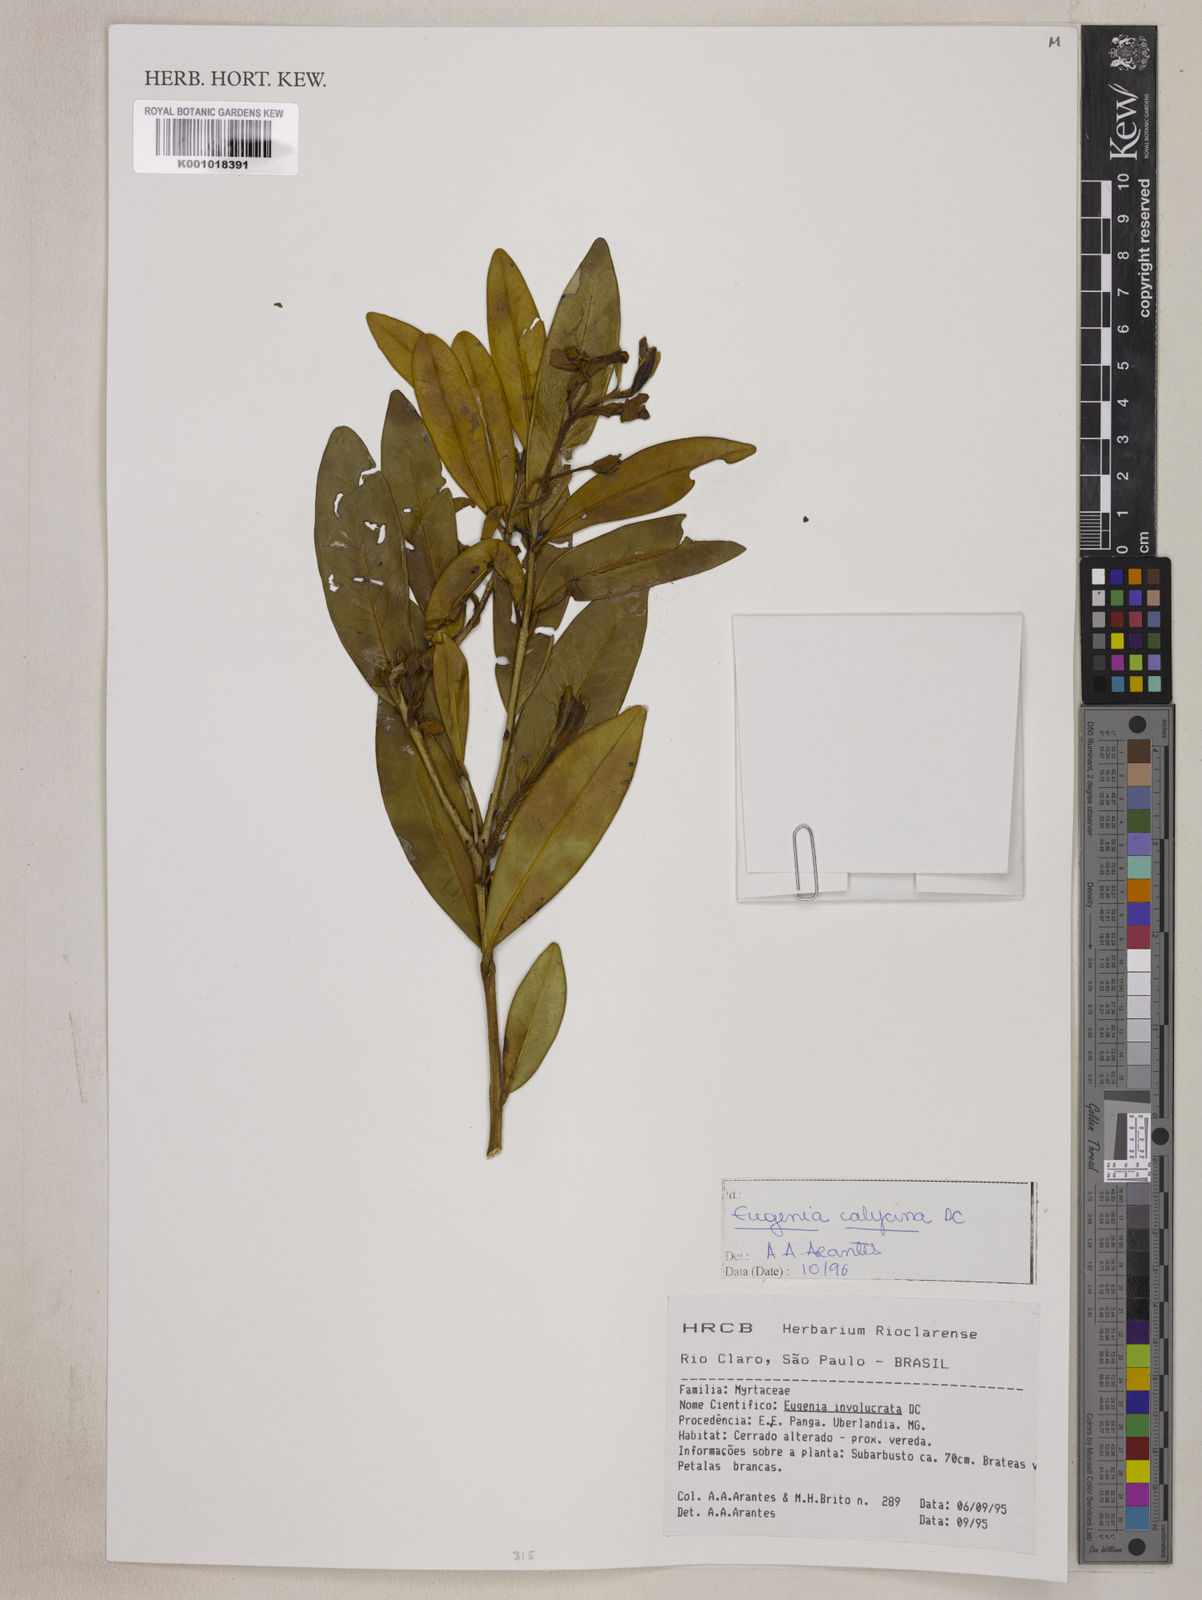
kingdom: Plantae
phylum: Tracheophyta
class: Magnoliopsida
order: Myrtales
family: Myrtaceae
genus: Eugenia
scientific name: Eugenia calycina
